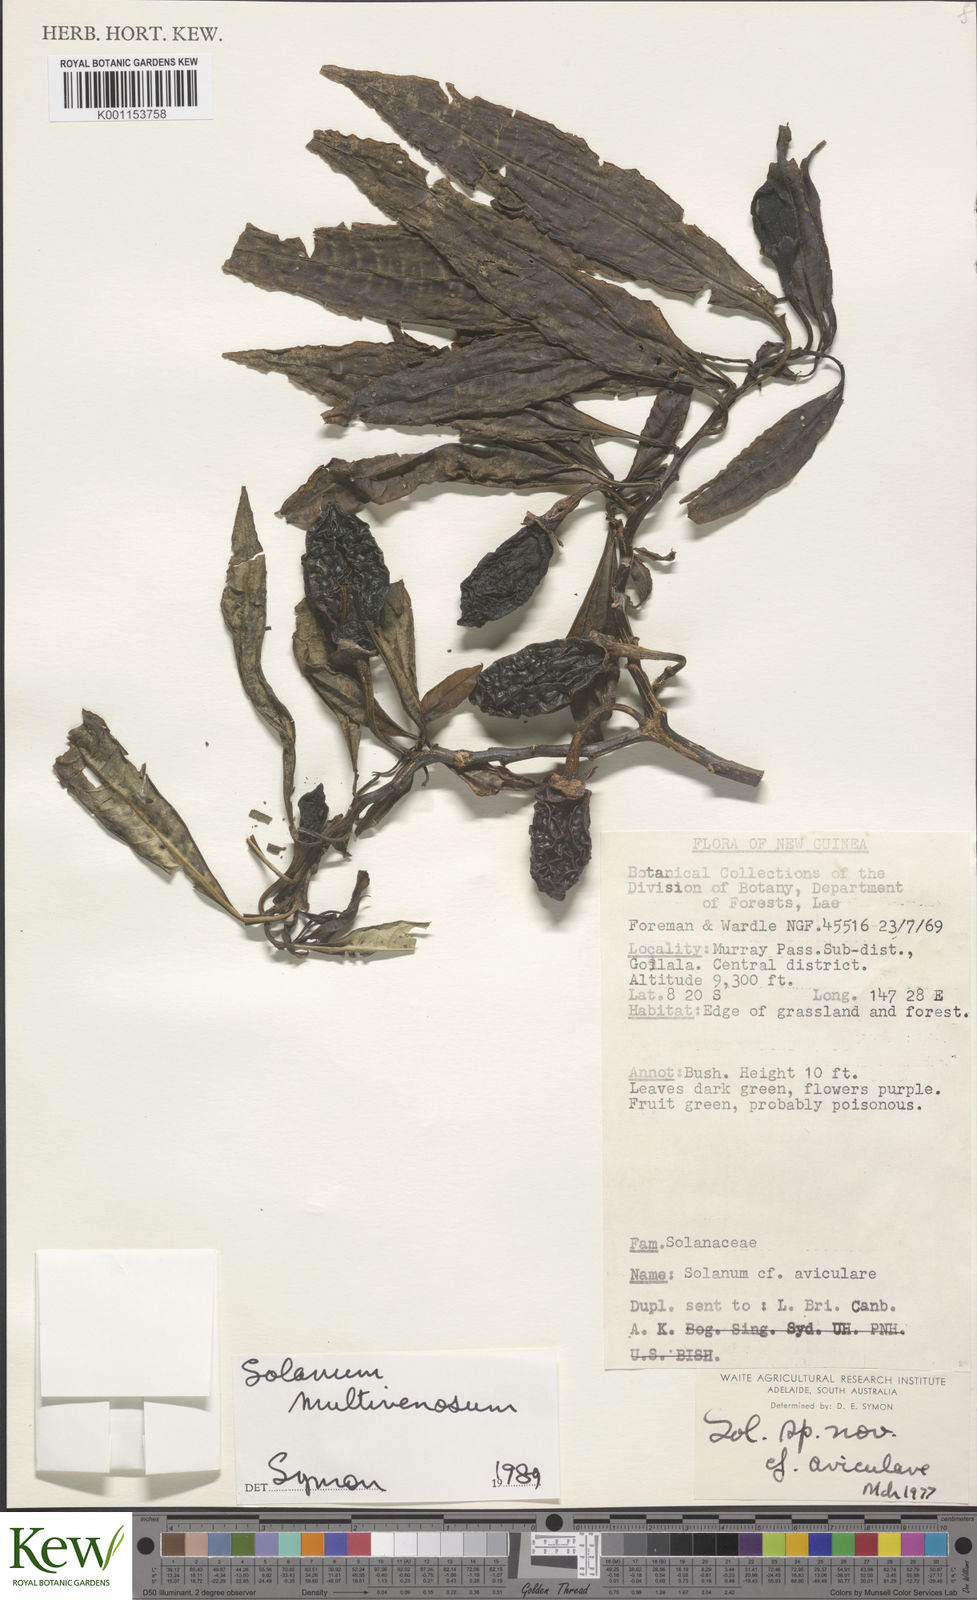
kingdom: Plantae
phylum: Tracheophyta
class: Magnoliopsida
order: Solanales
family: Solanaceae
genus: Solanum
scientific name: Solanum multivenosum
